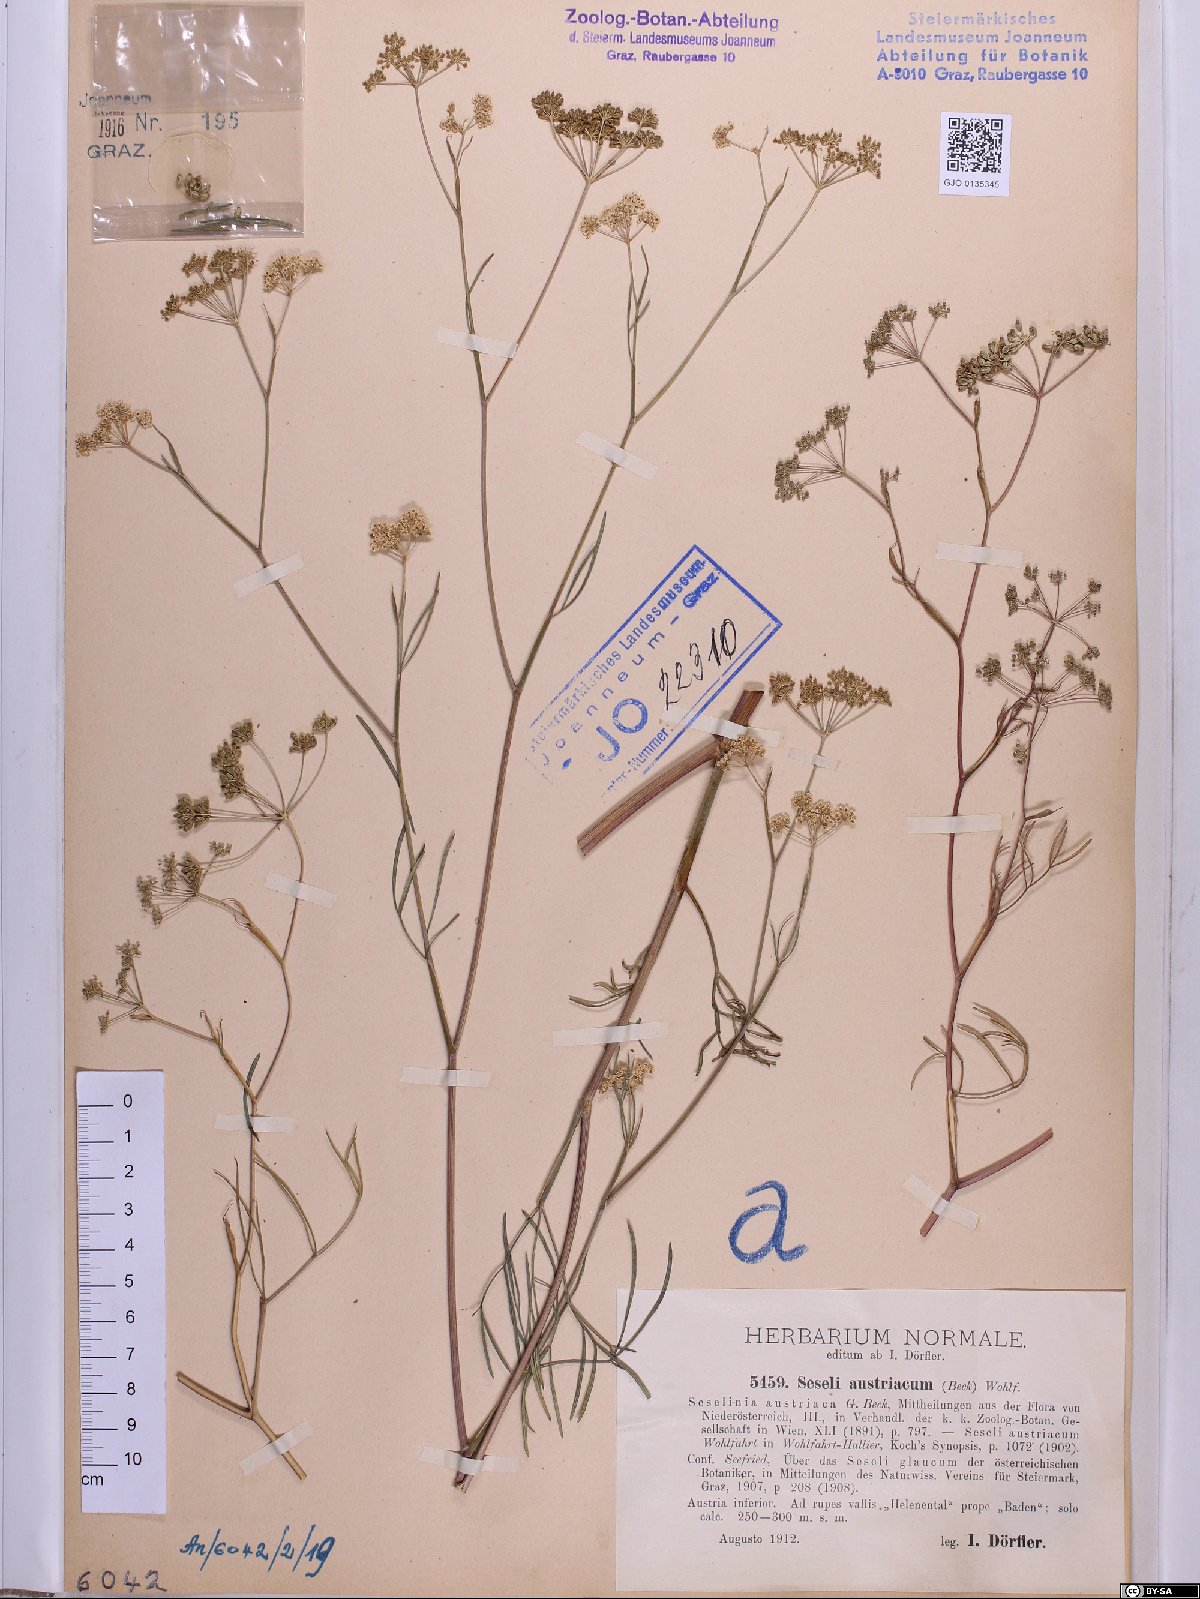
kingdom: Plantae
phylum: Tracheophyta
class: Magnoliopsida
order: Apiales
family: Apiaceae
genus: Seseli
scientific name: Seseli austriacum
